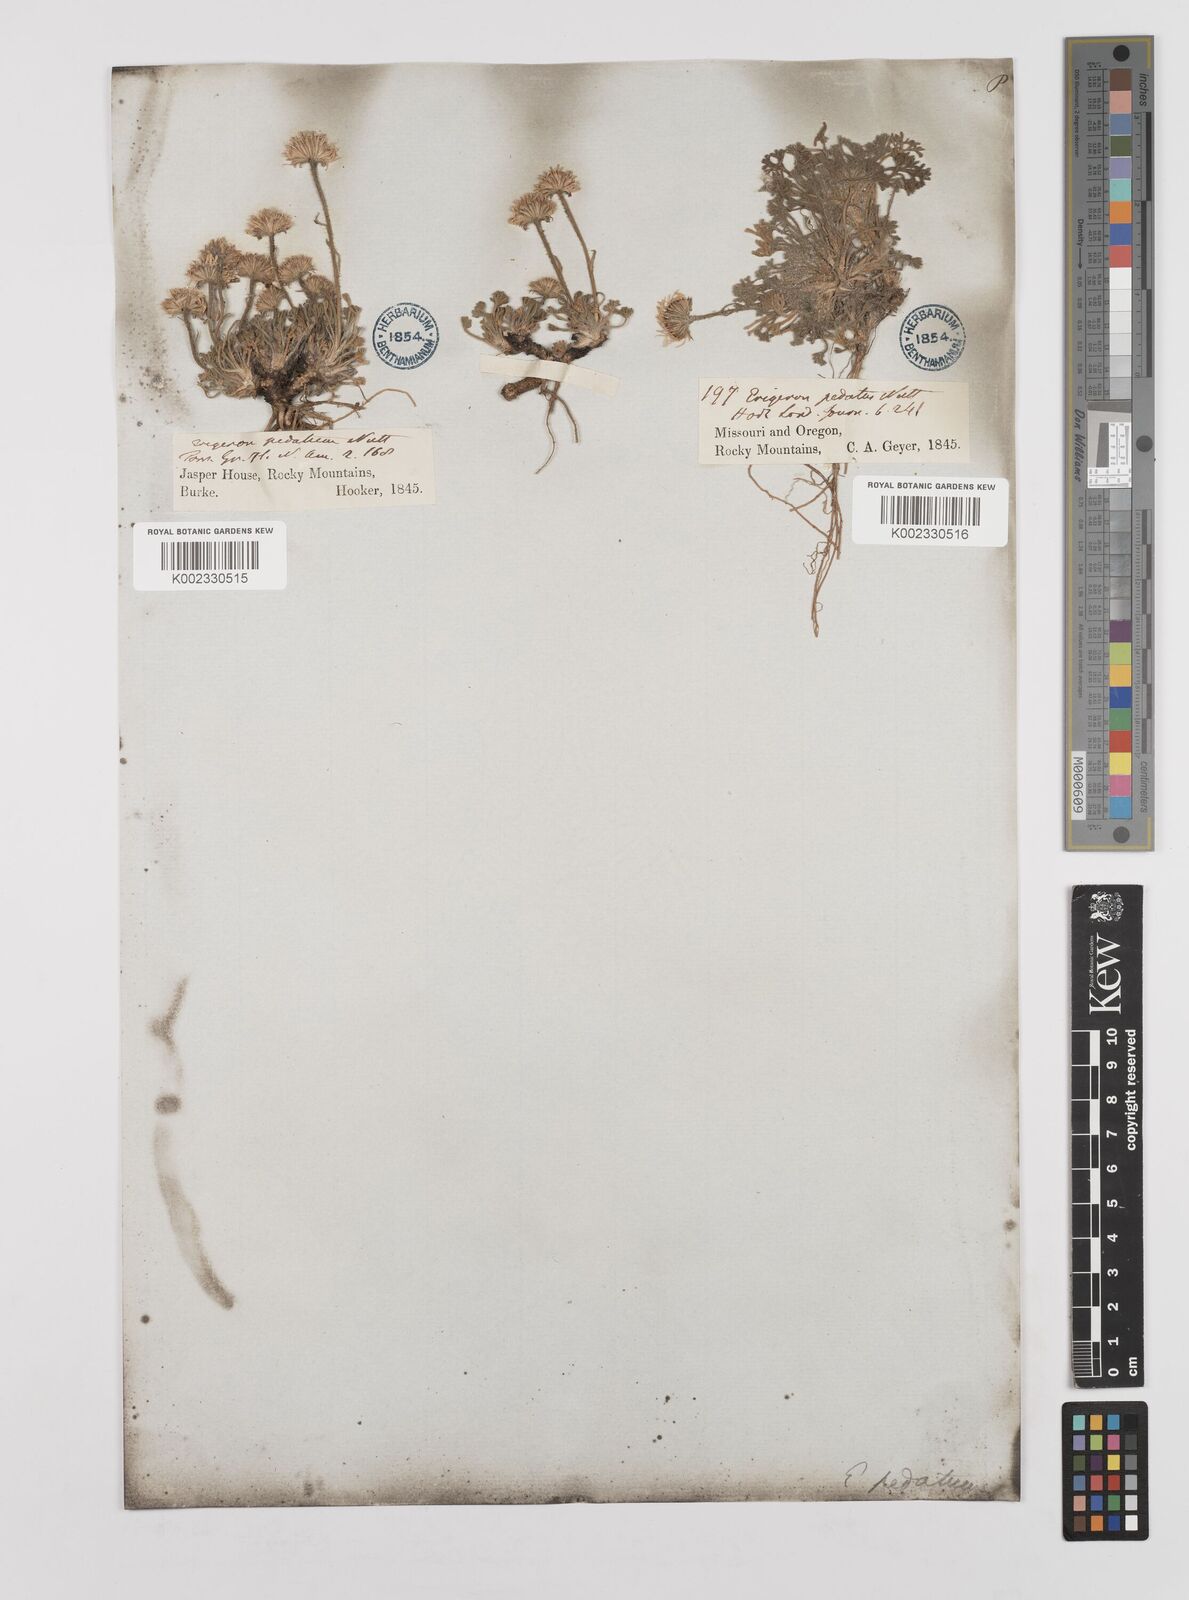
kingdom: Plantae
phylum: Tracheophyta
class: Magnoliopsida
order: Asterales
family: Asteraceae
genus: Erigeron
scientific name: Erigeron compositus
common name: Dwarf mountain fleabane
